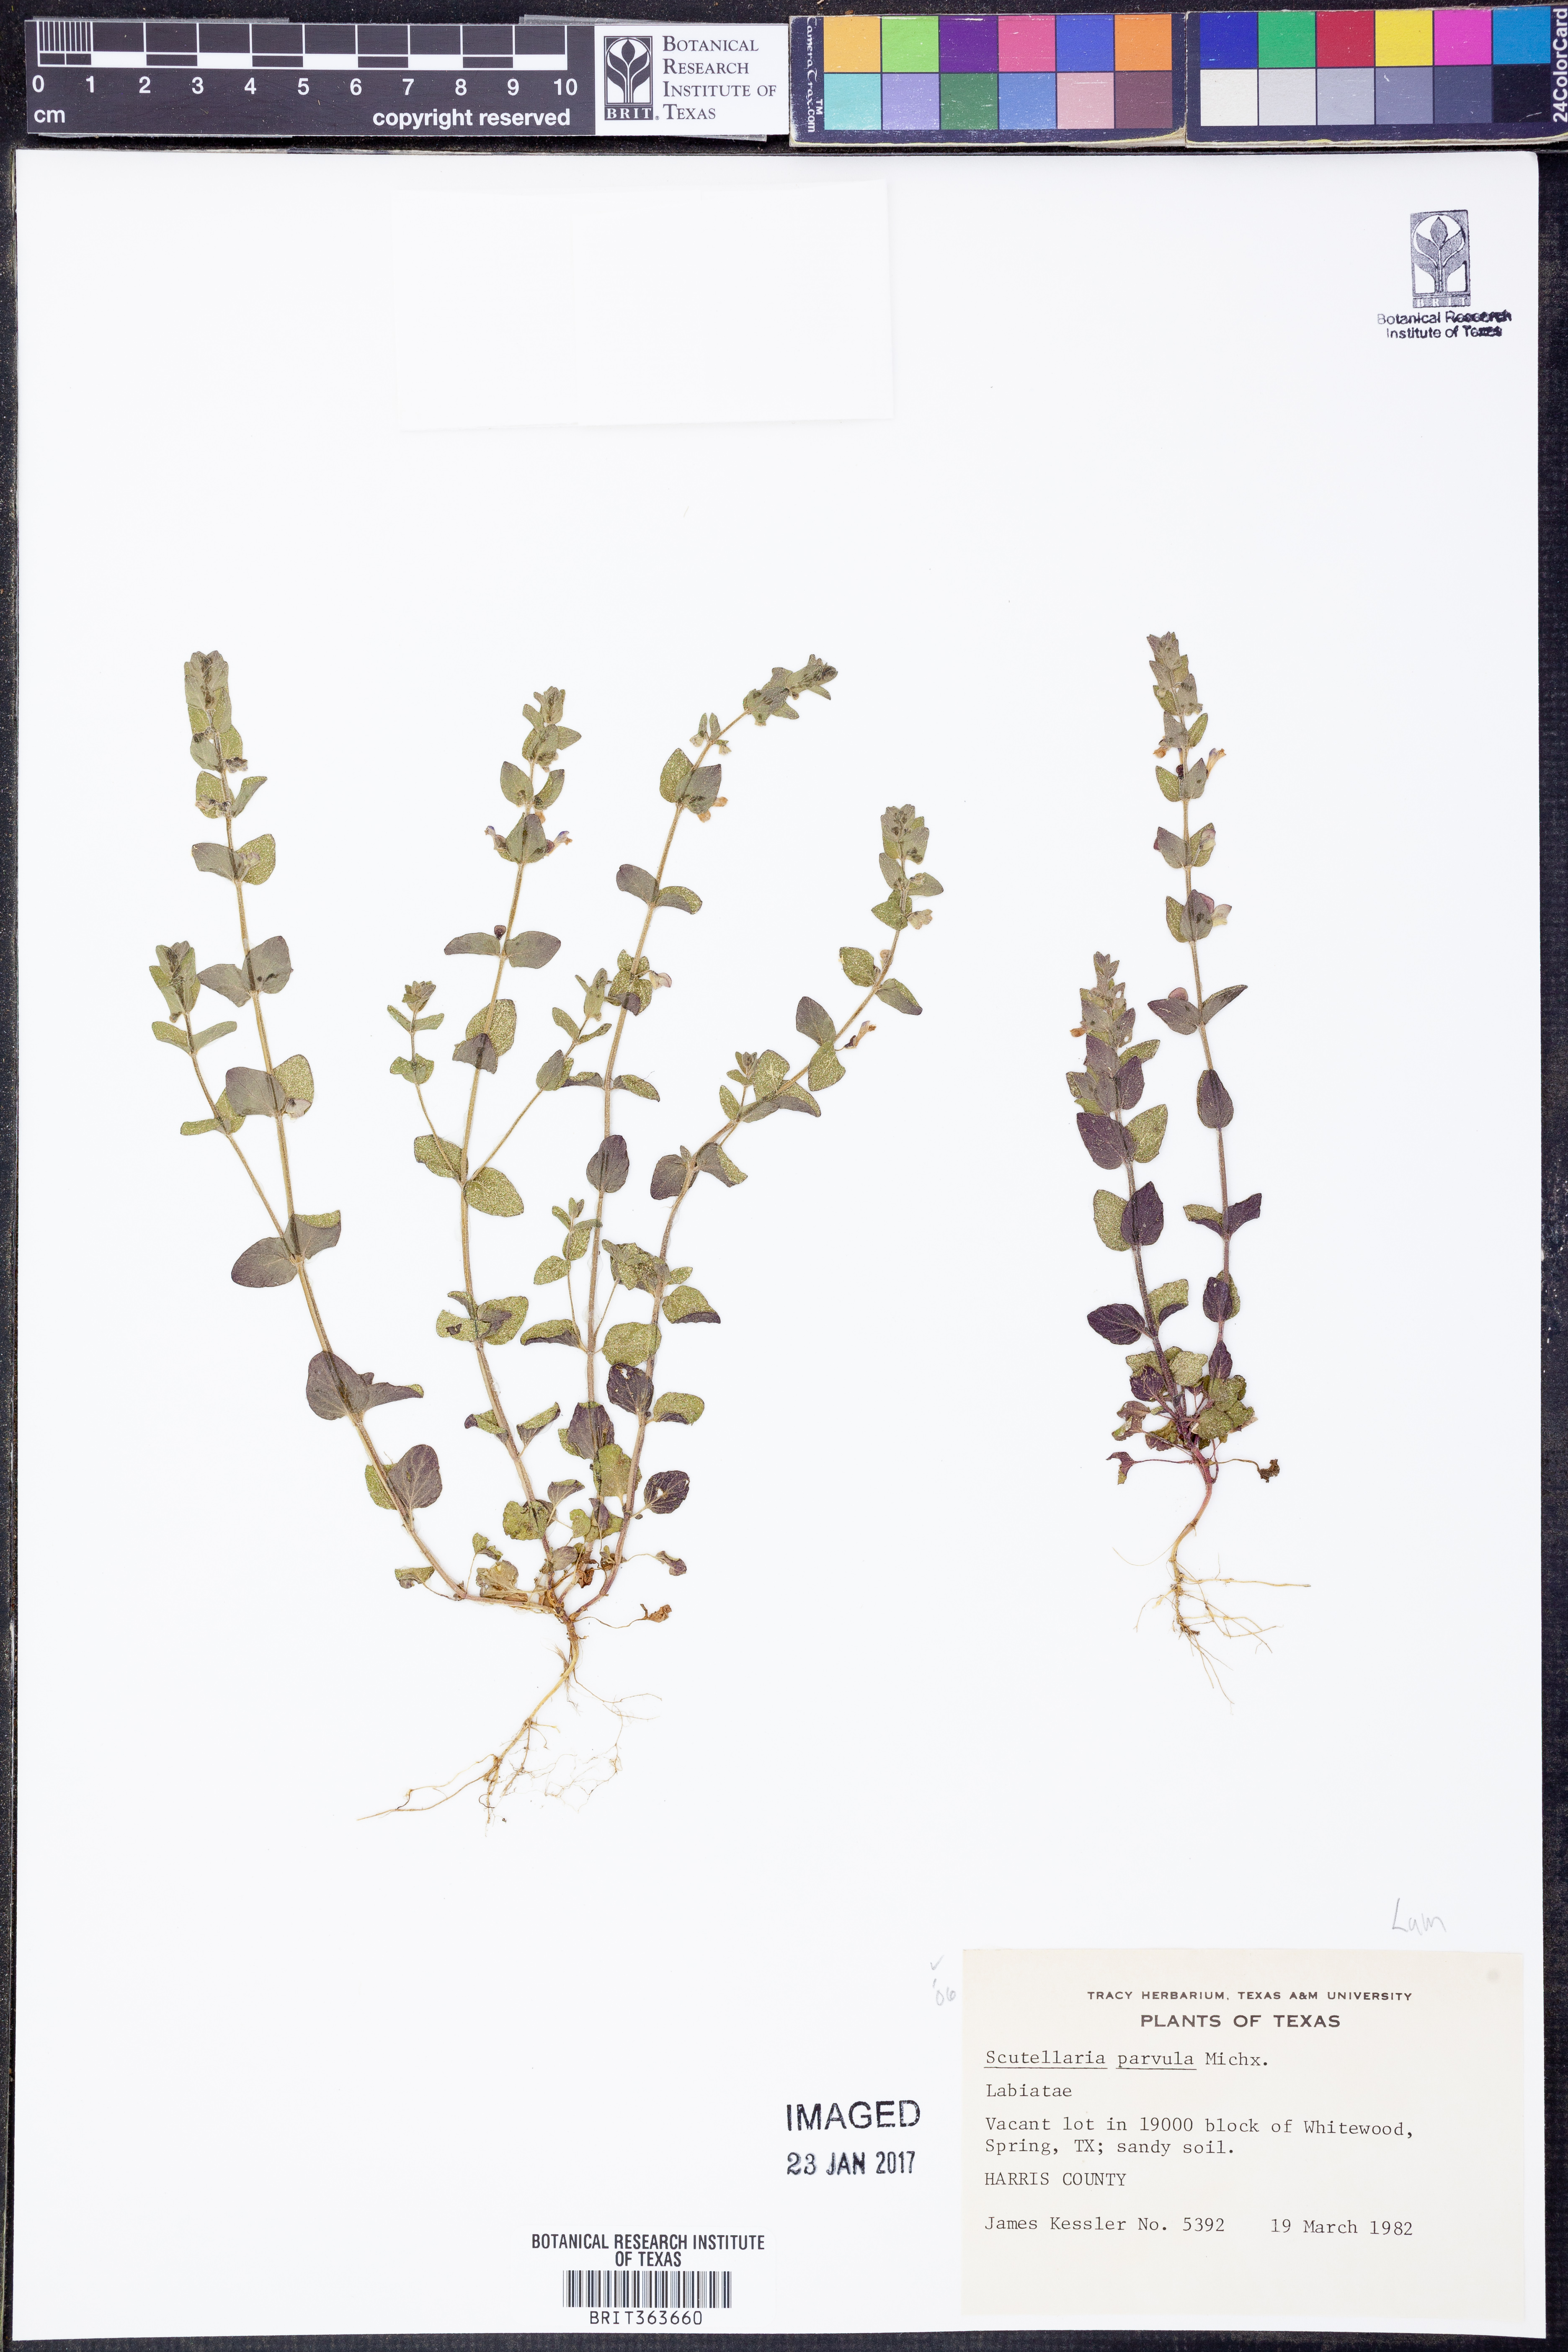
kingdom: Plantae
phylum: Tracheophyta
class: Magnoliopsida
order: Lamiales
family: Lamiaceae
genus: Scutellaria
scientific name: Scutellaria parvula
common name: Little scullcap
